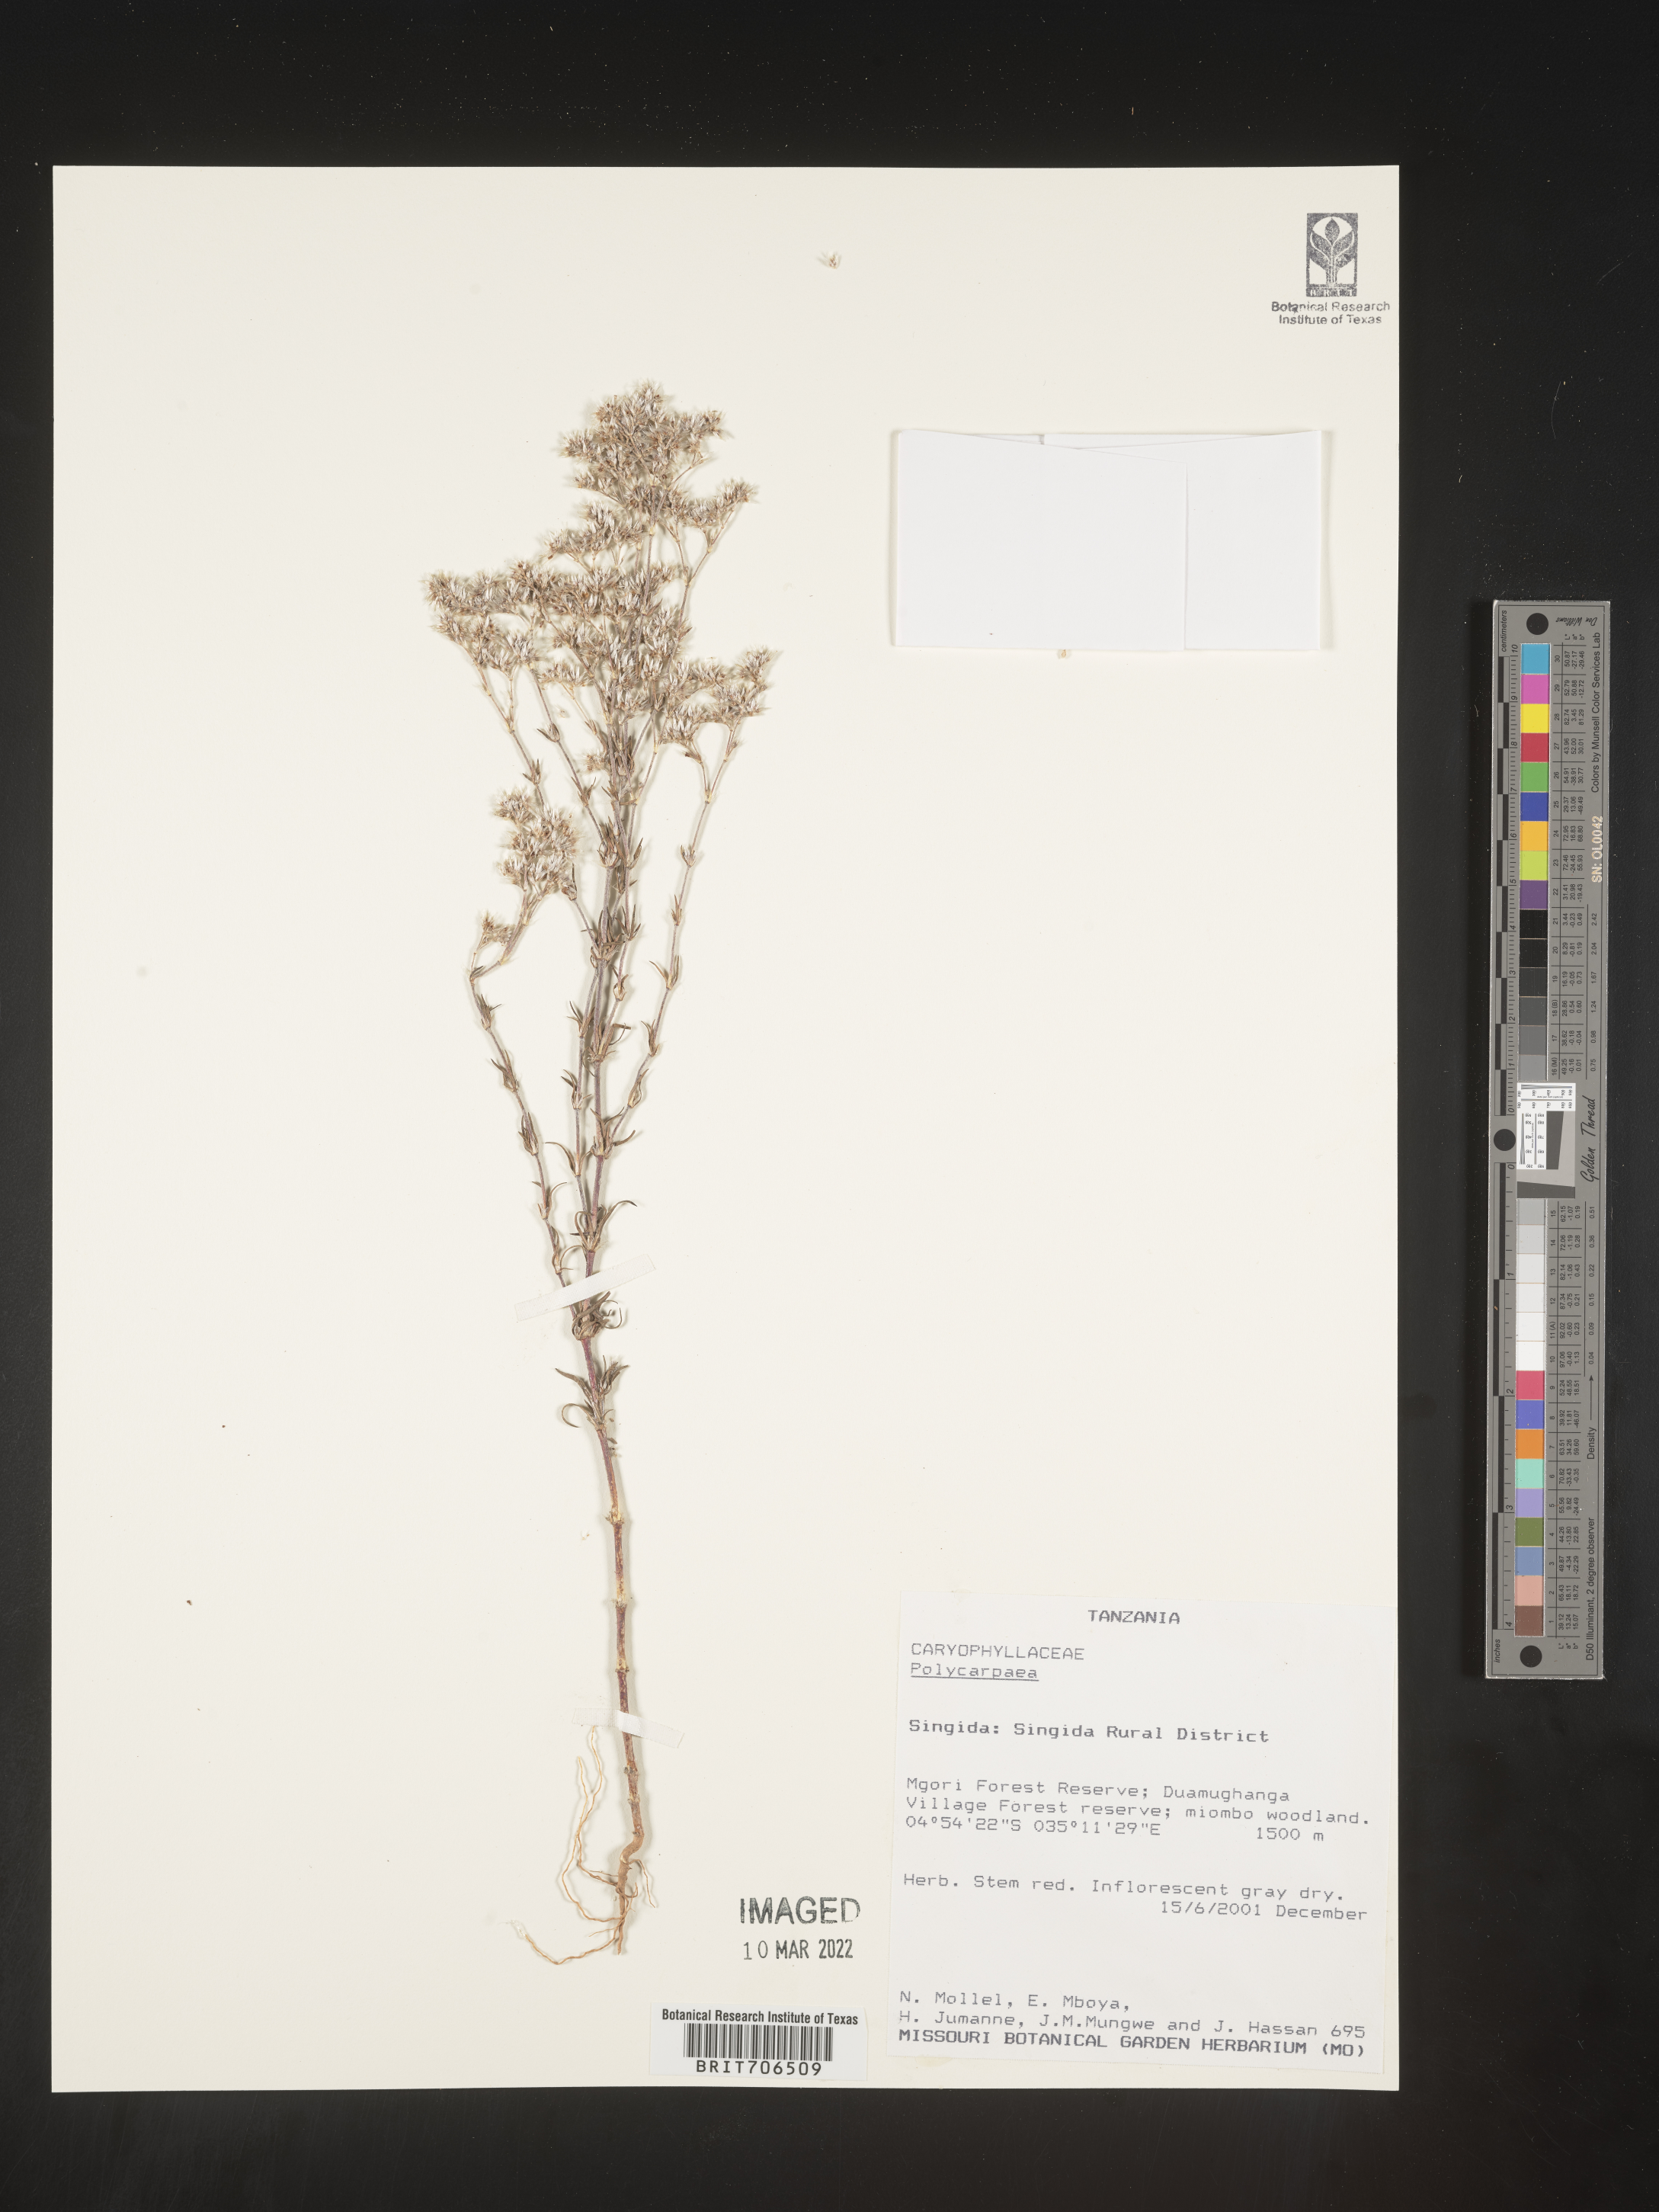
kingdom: Plantae
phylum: Tracheophyta
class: Magnoliopsida
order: Caryophyllales
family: Caryophyllaceae
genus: Polycarpaea
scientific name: Polycarpaea
